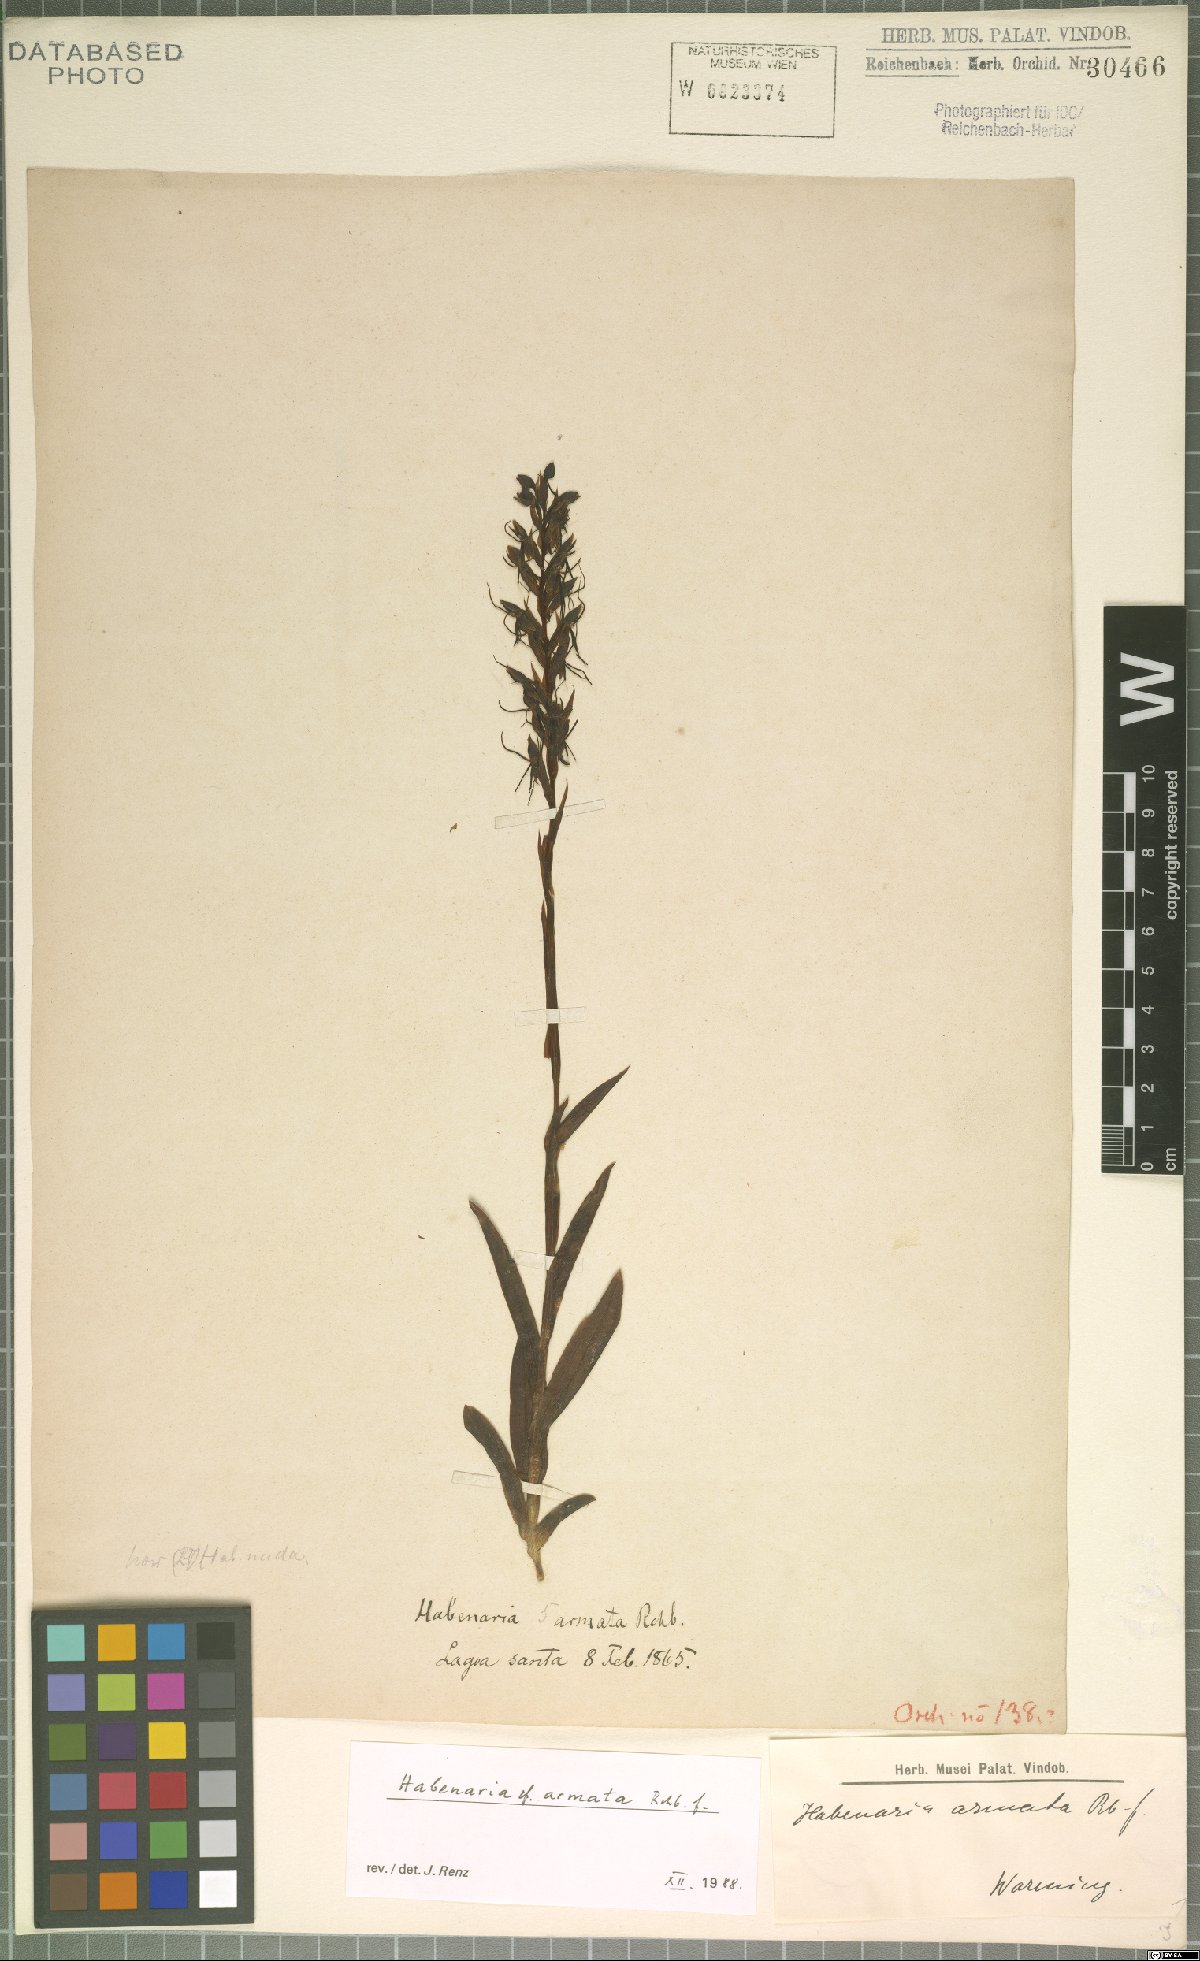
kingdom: Plantae
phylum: Tracheophyta
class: Liliopsida
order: Asparagales
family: Orchidaceae
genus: Habenaria
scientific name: Habenaria armata
